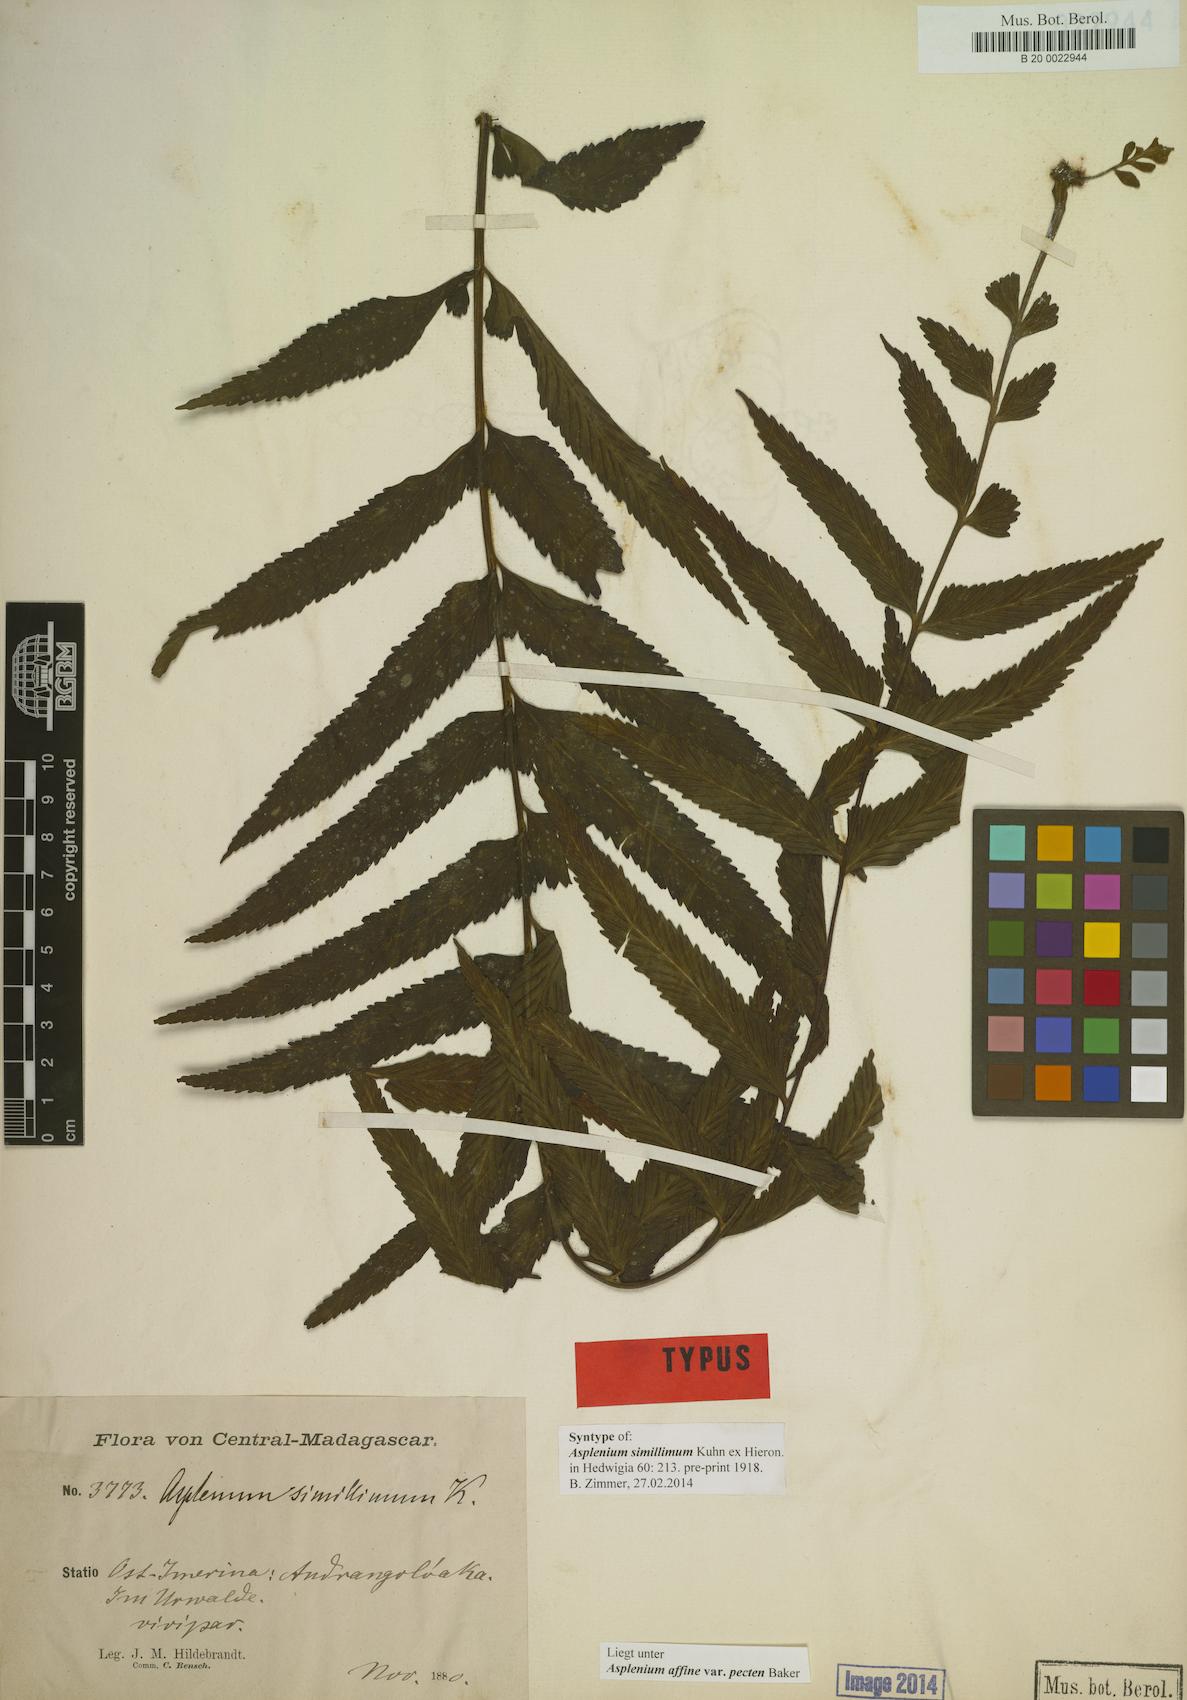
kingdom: Plantae
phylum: Tracheophyta
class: Polypodiopsida
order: Polypodiales
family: Aspleniaceae
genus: Asplenium
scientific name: Asplenium herpetopteris
